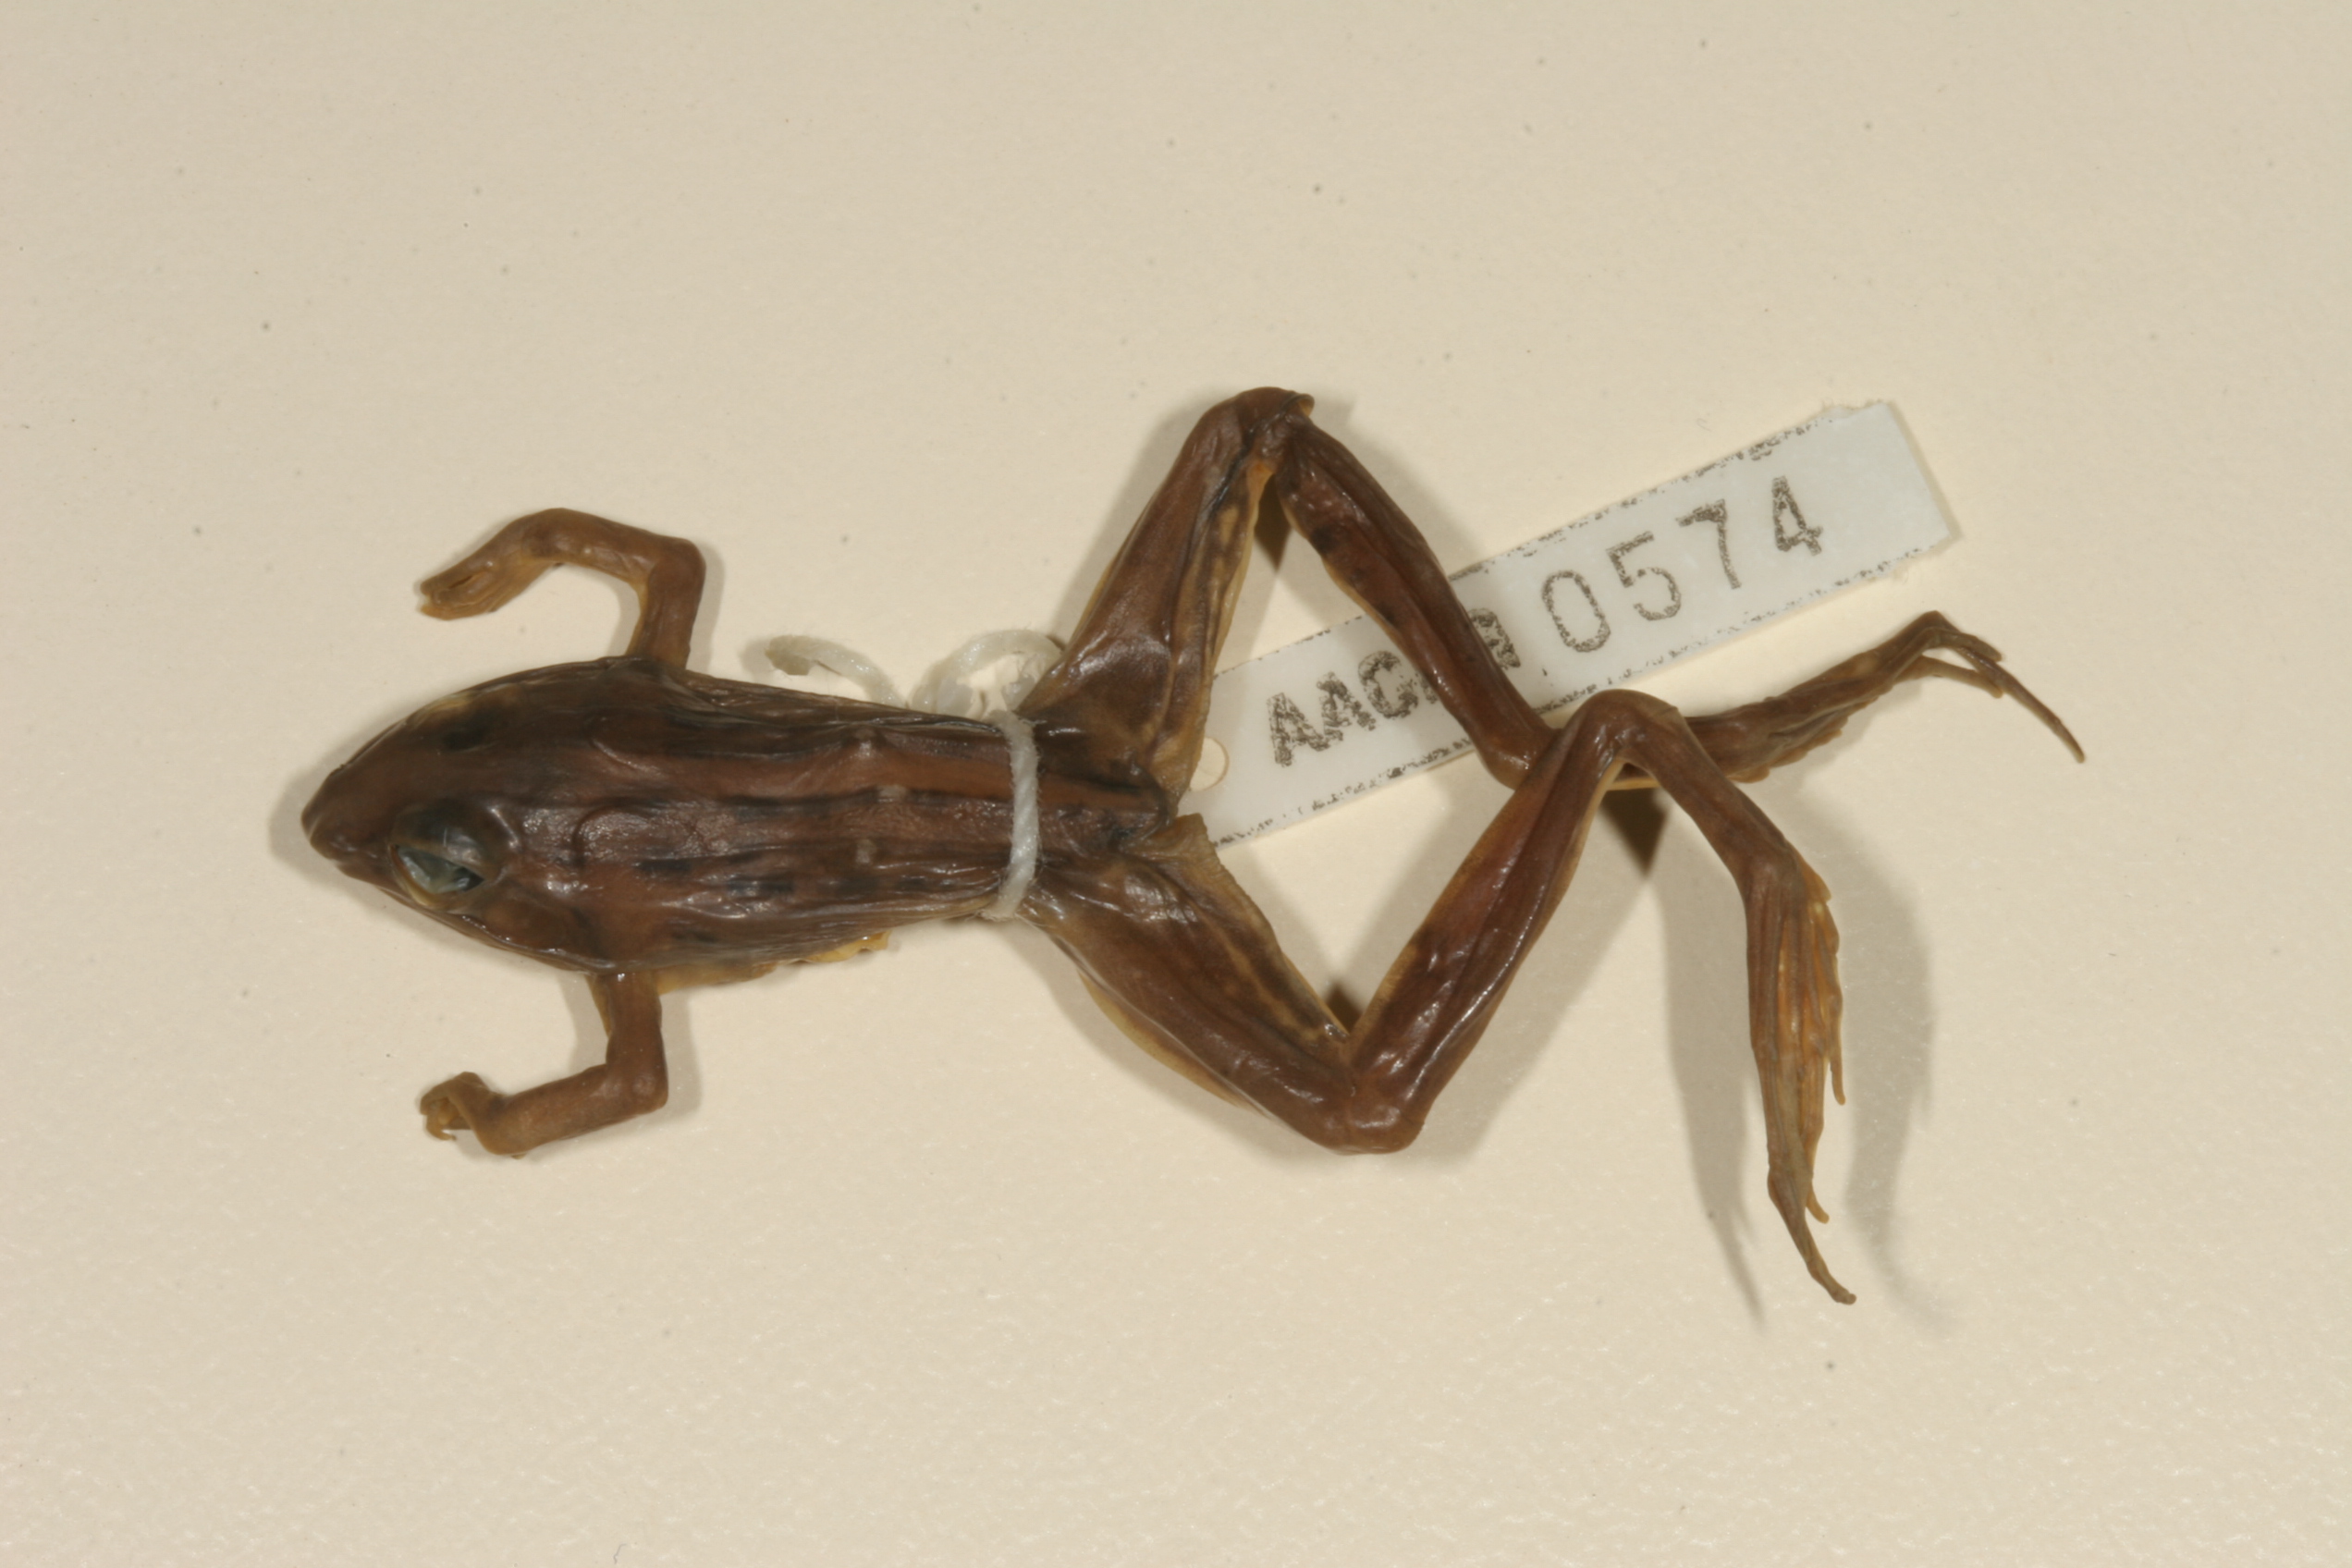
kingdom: Animalia
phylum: Chordata
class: Amphibia
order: Anura
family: Ptychadenidae
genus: Ptychadena
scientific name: Ptychadena mapacha
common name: Mapach ridged frog
